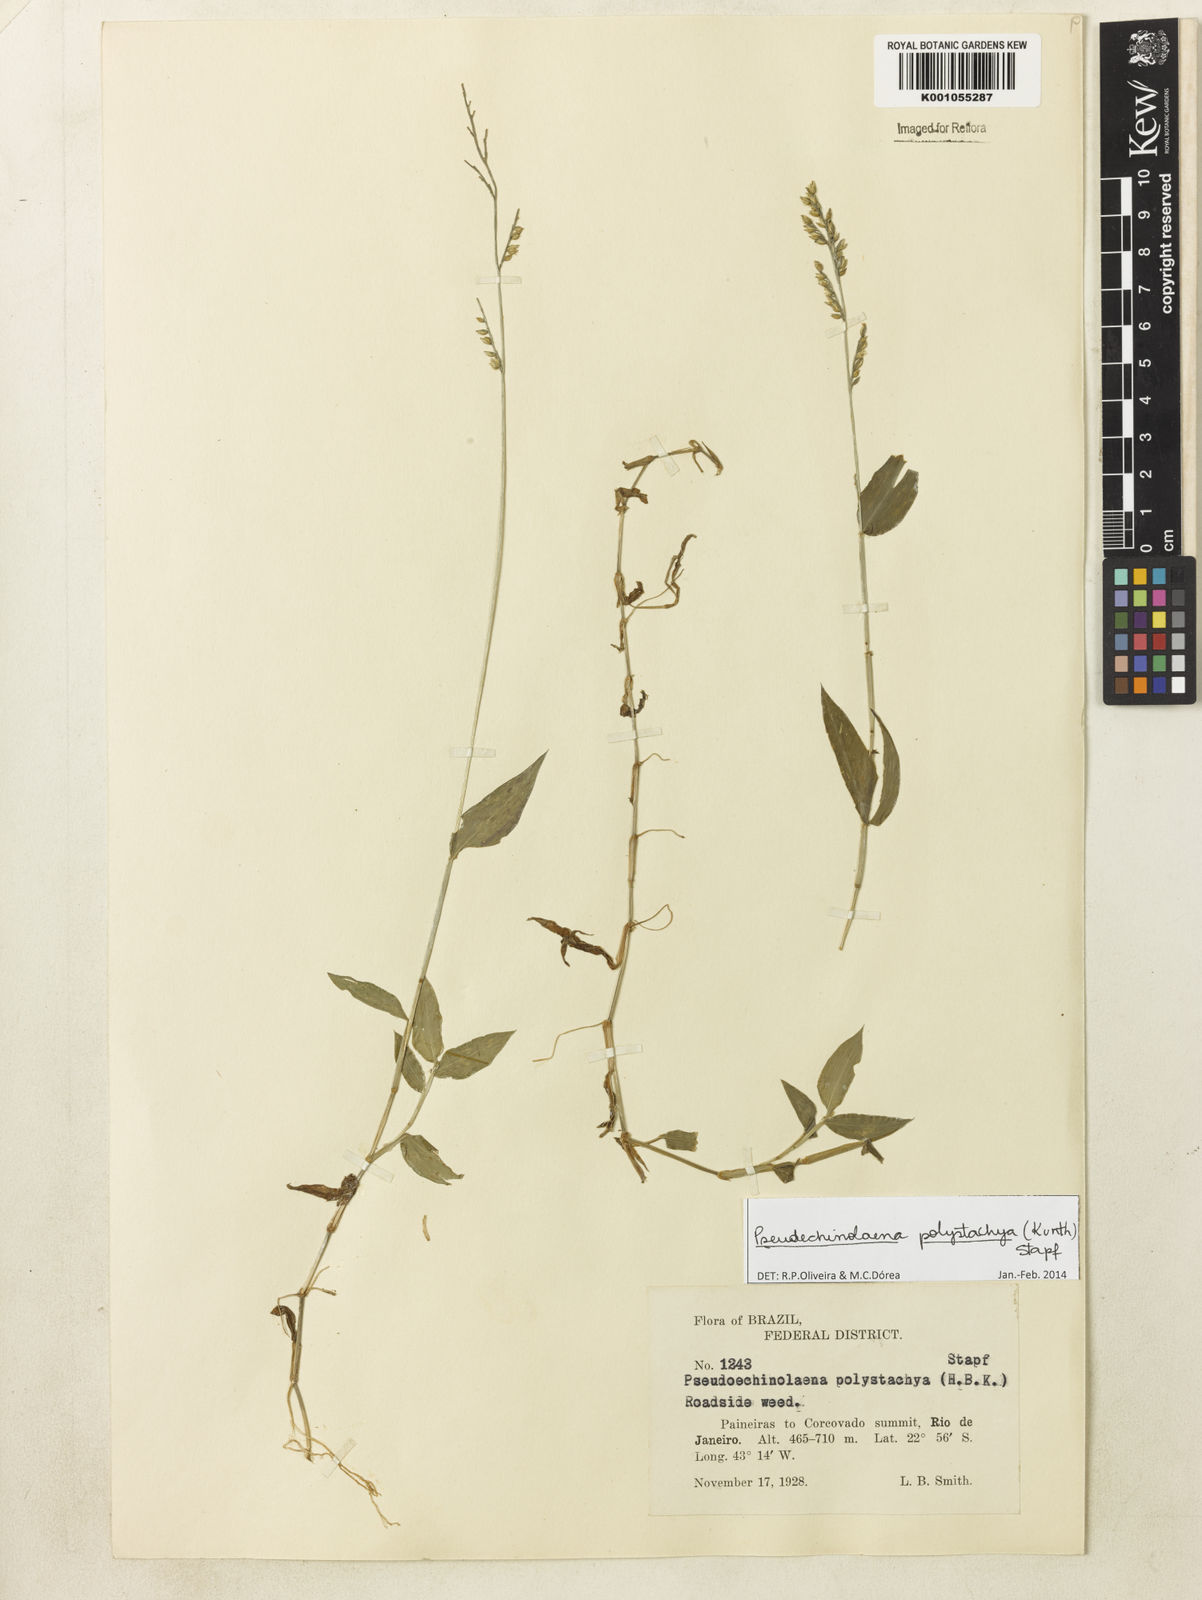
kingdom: Plantae
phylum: Tracheophyta
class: Liliopsida
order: Poales
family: Poaceae
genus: Pseudechinolaena
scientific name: Pseudechinolaena polystachya
